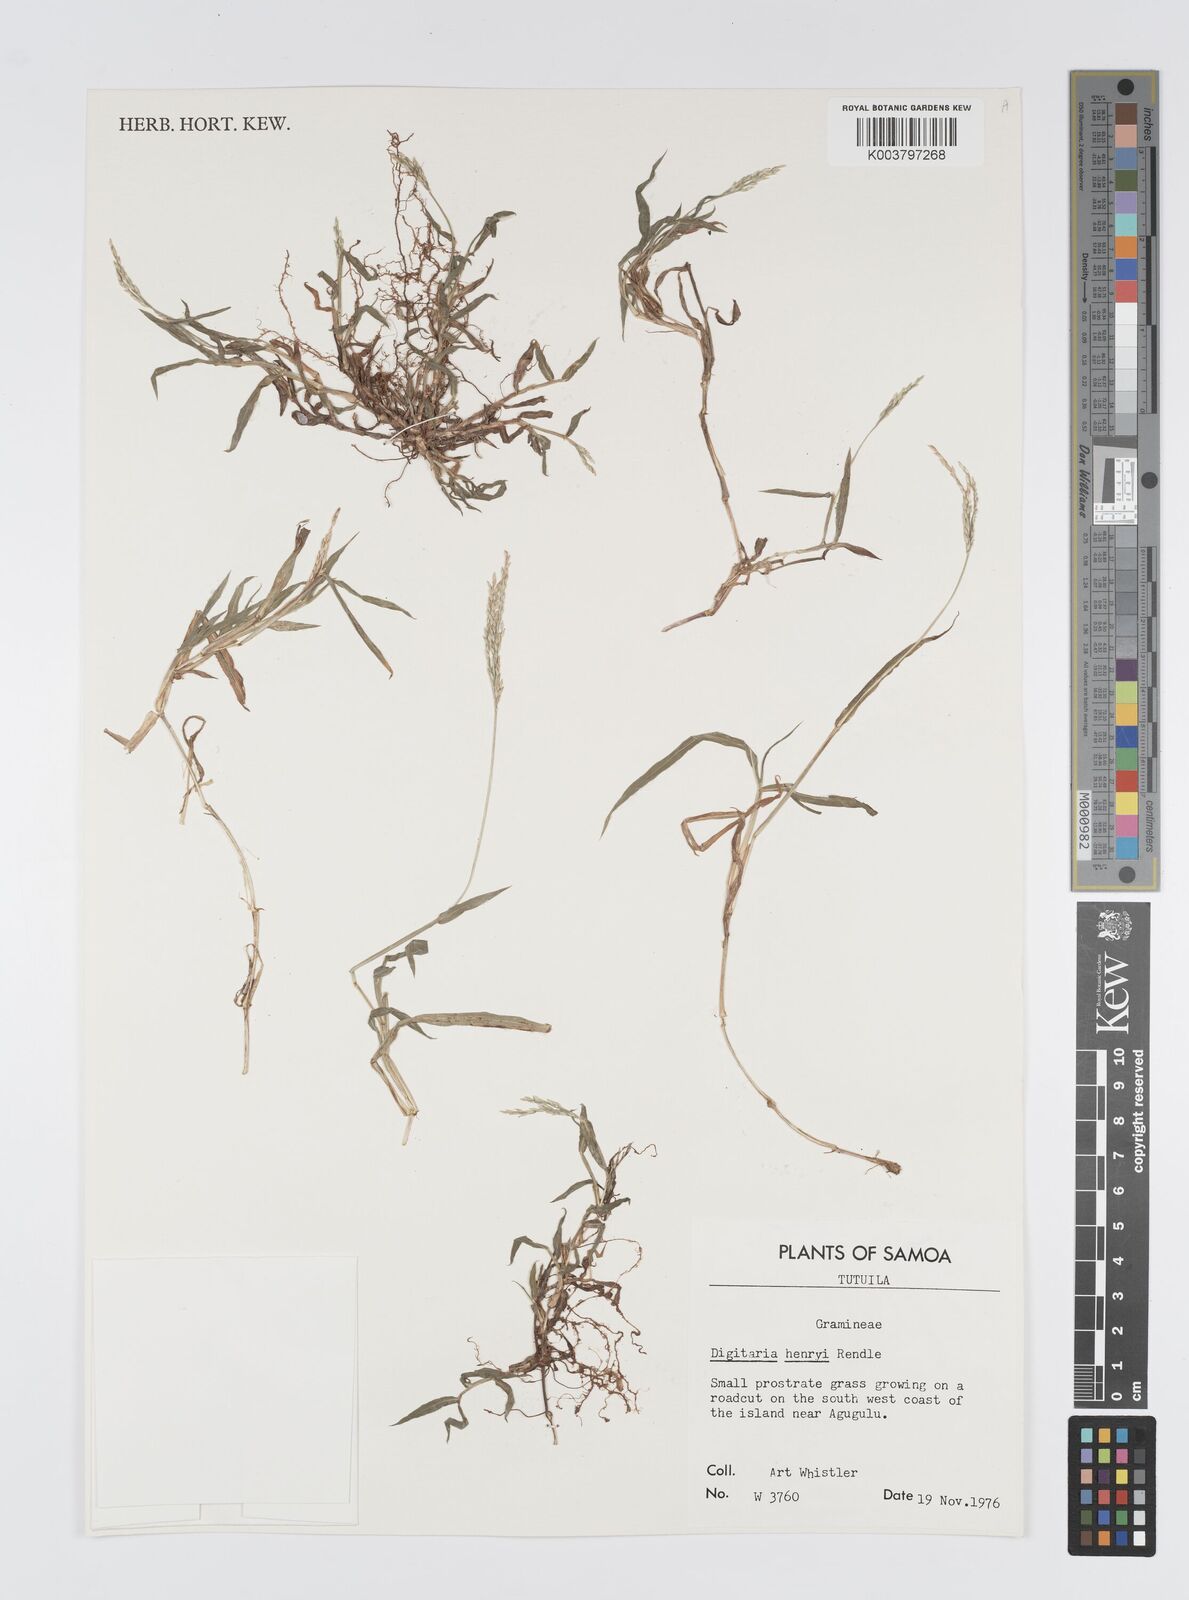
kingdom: Plantae
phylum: Tracheophyta
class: Liliopsida
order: Poales
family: Poaceae
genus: Digitaria
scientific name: Digitaria ciliaris
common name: Tropical finger-grass
